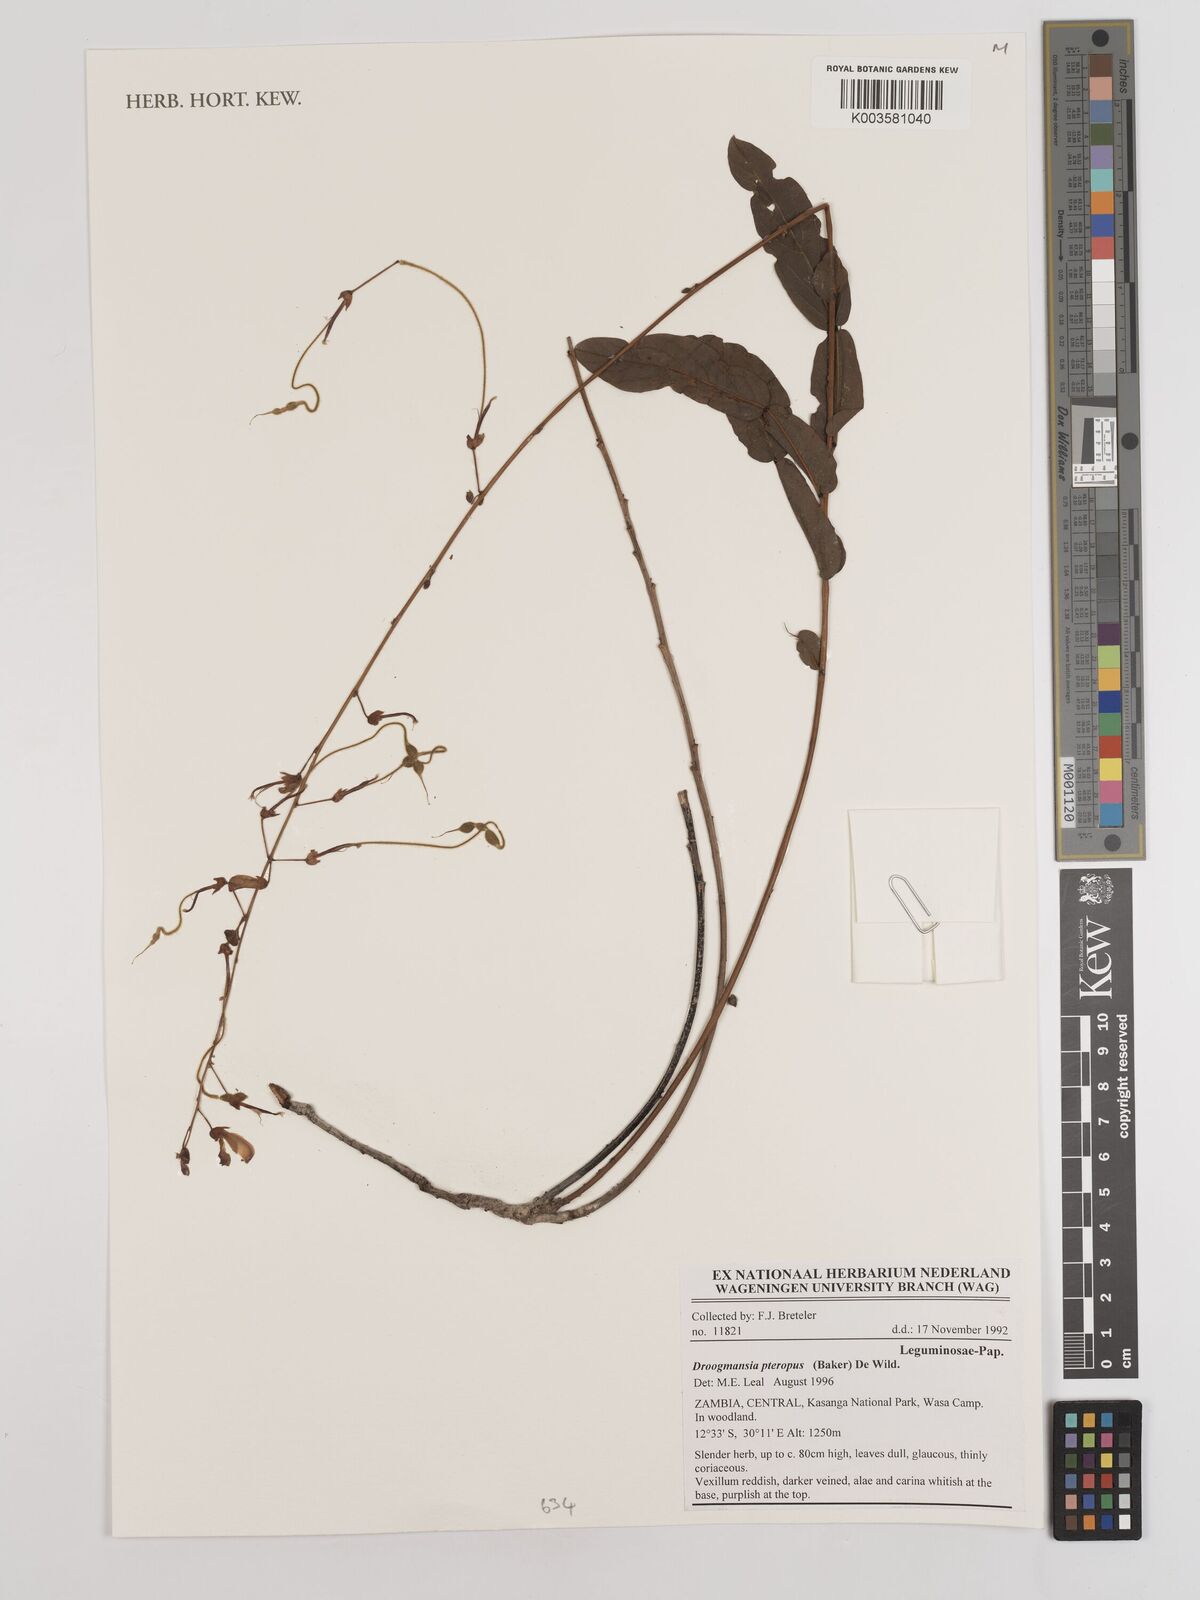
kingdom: Plantae
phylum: Tracheophyta
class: Magnoliopsida
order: Fabales
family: Fabaceae
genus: Droogmansia
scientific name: Droogmansia pteropus
